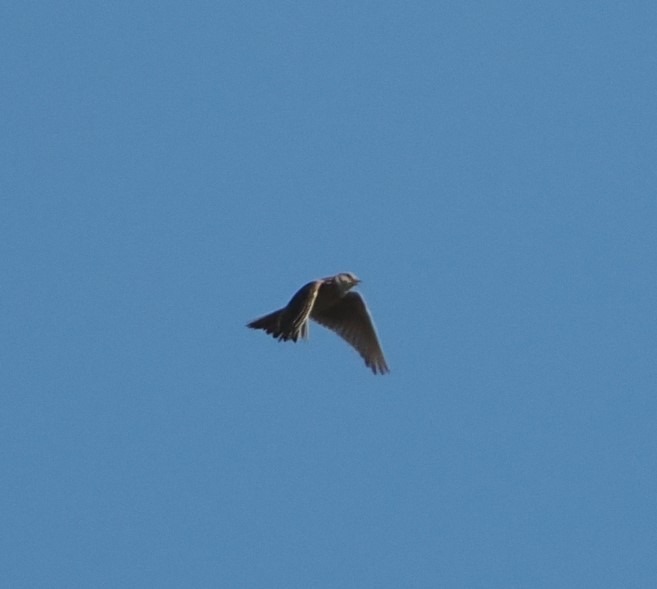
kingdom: Animalia
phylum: Chordata
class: Aves
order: Passeriformes
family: Alaudidae
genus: Alauda
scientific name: Alauda arvensis
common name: Sanglærke
